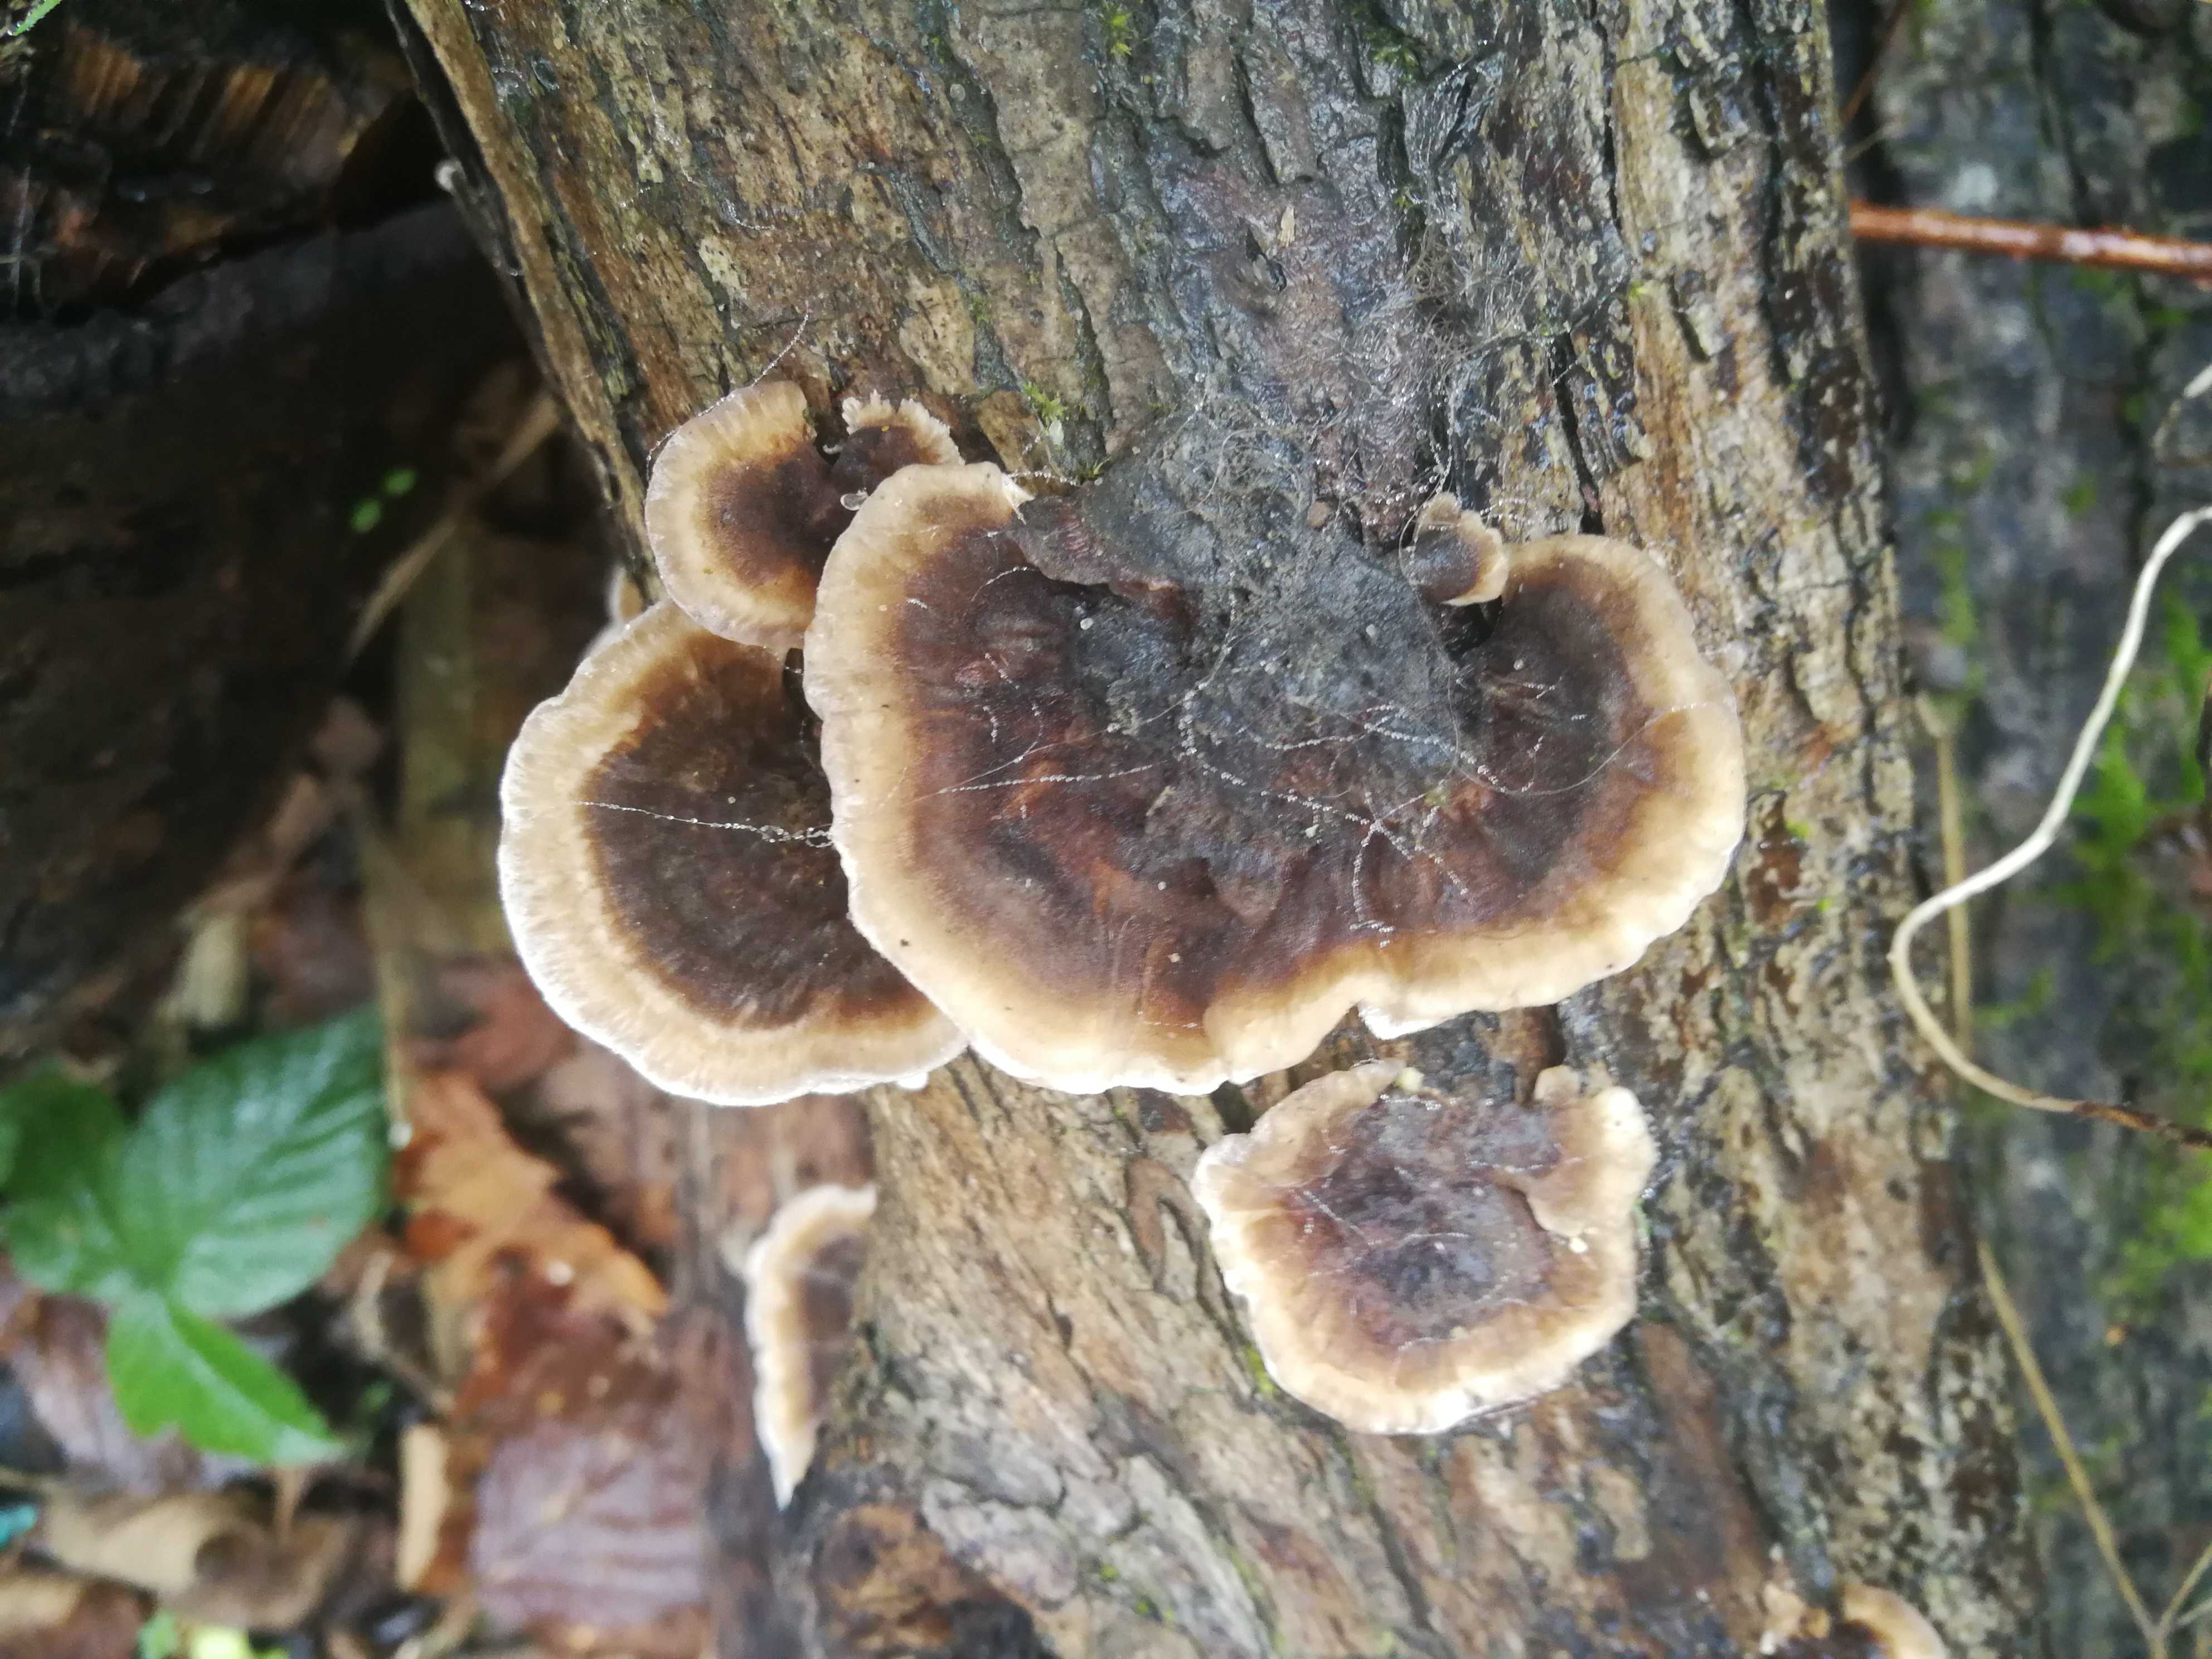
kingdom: Fungi
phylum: Basidiomycota
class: Agaricomycetes
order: Polyporales
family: Polyporaceae
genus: Trametes
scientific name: Trametes versicolor
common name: broget læderporesvamp
